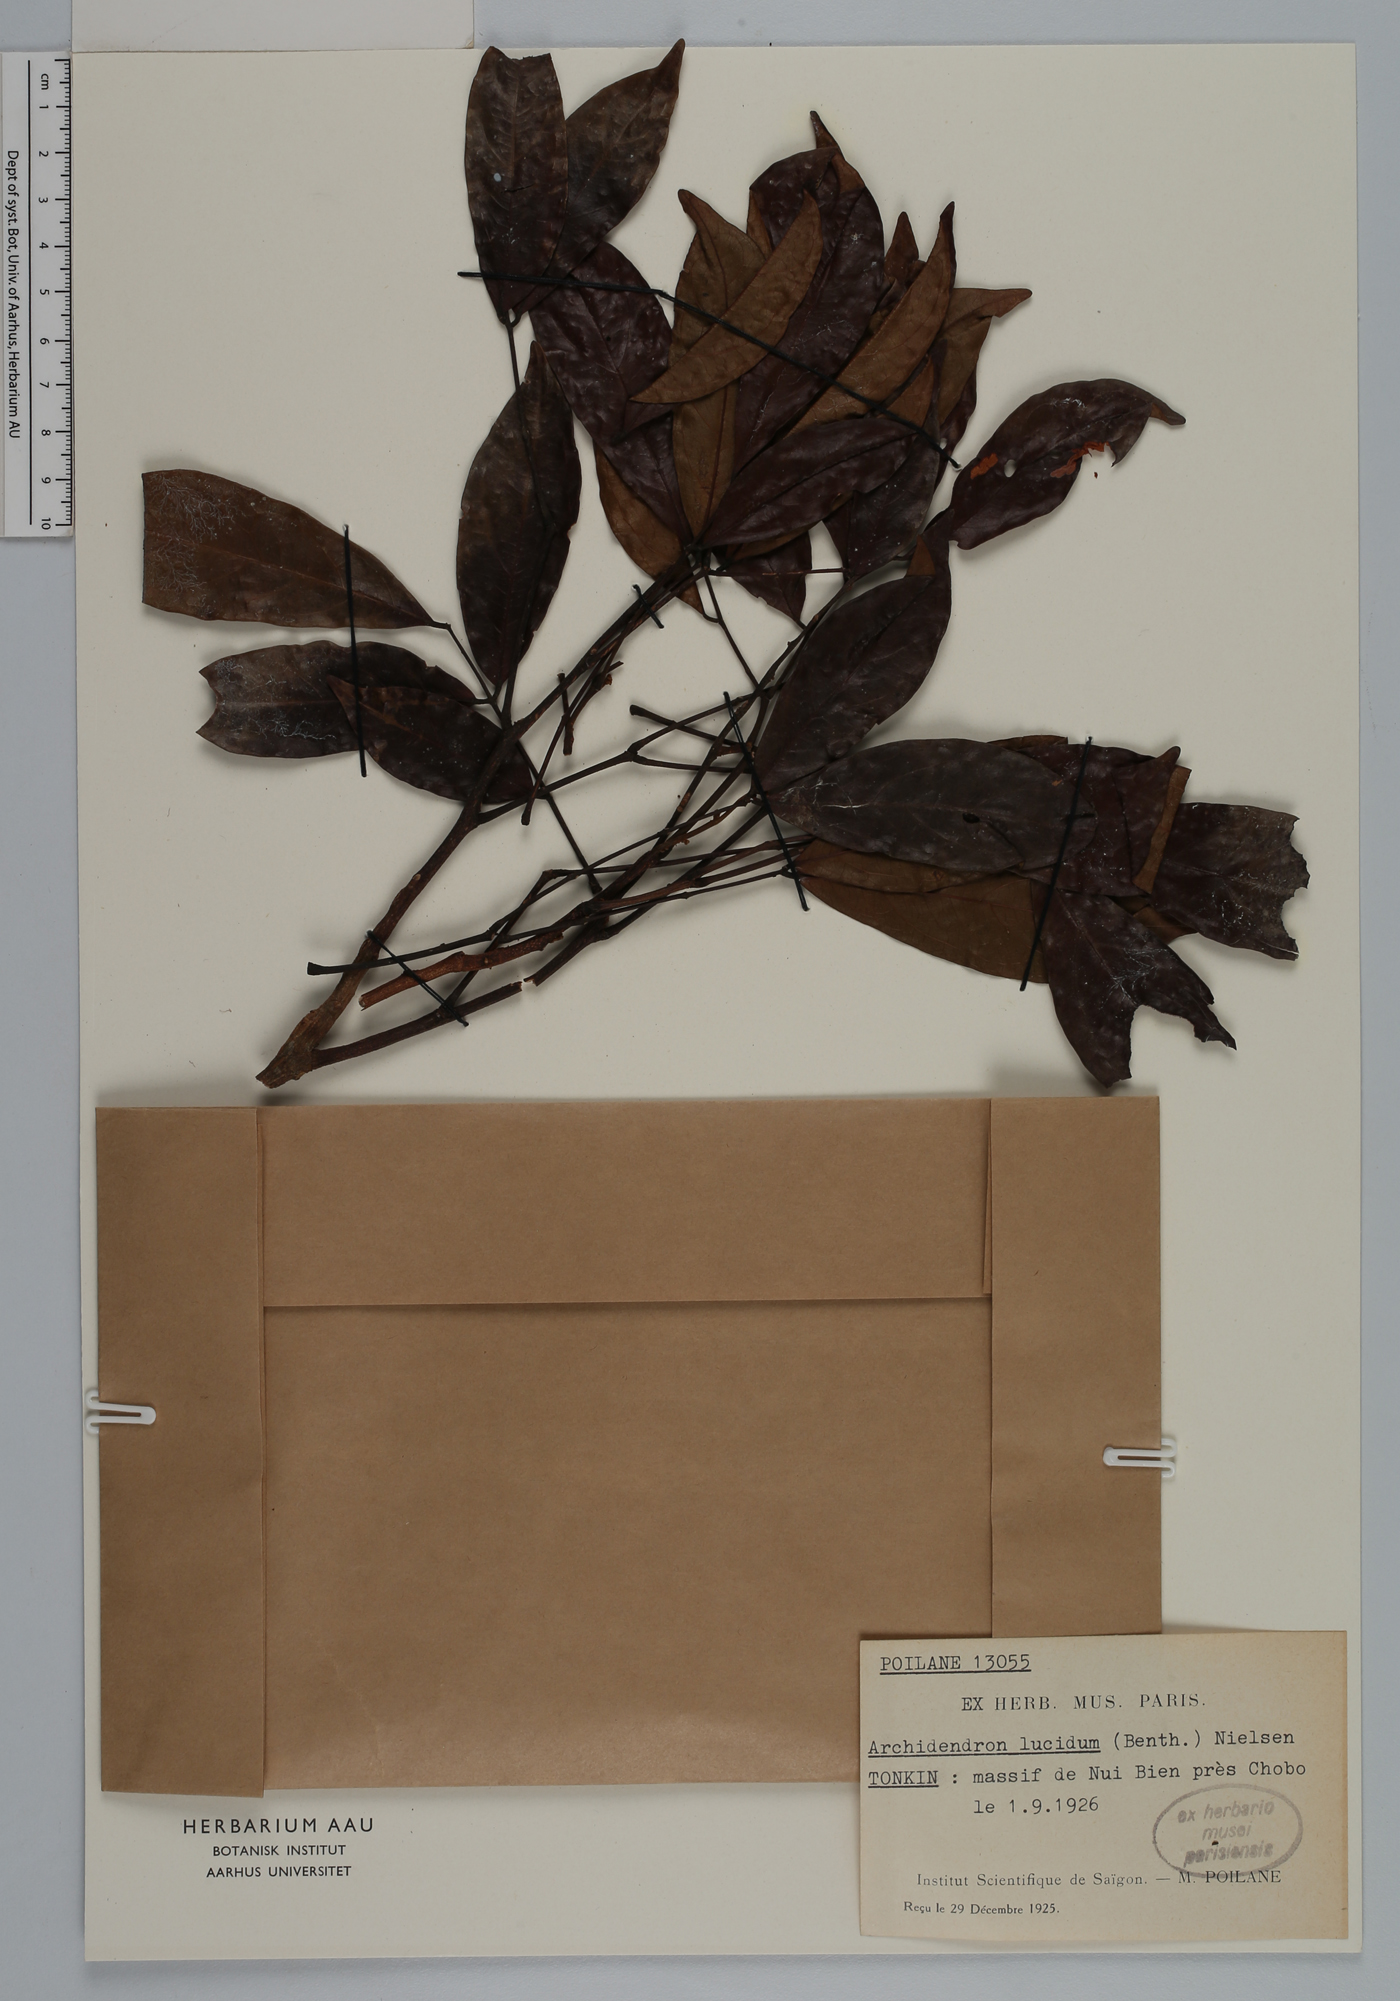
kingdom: Plantae
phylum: Tracheophyta
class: Magnoliopsida
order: Fabales
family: Fabaceae
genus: Archidendron
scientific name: Archidendron lucidum
